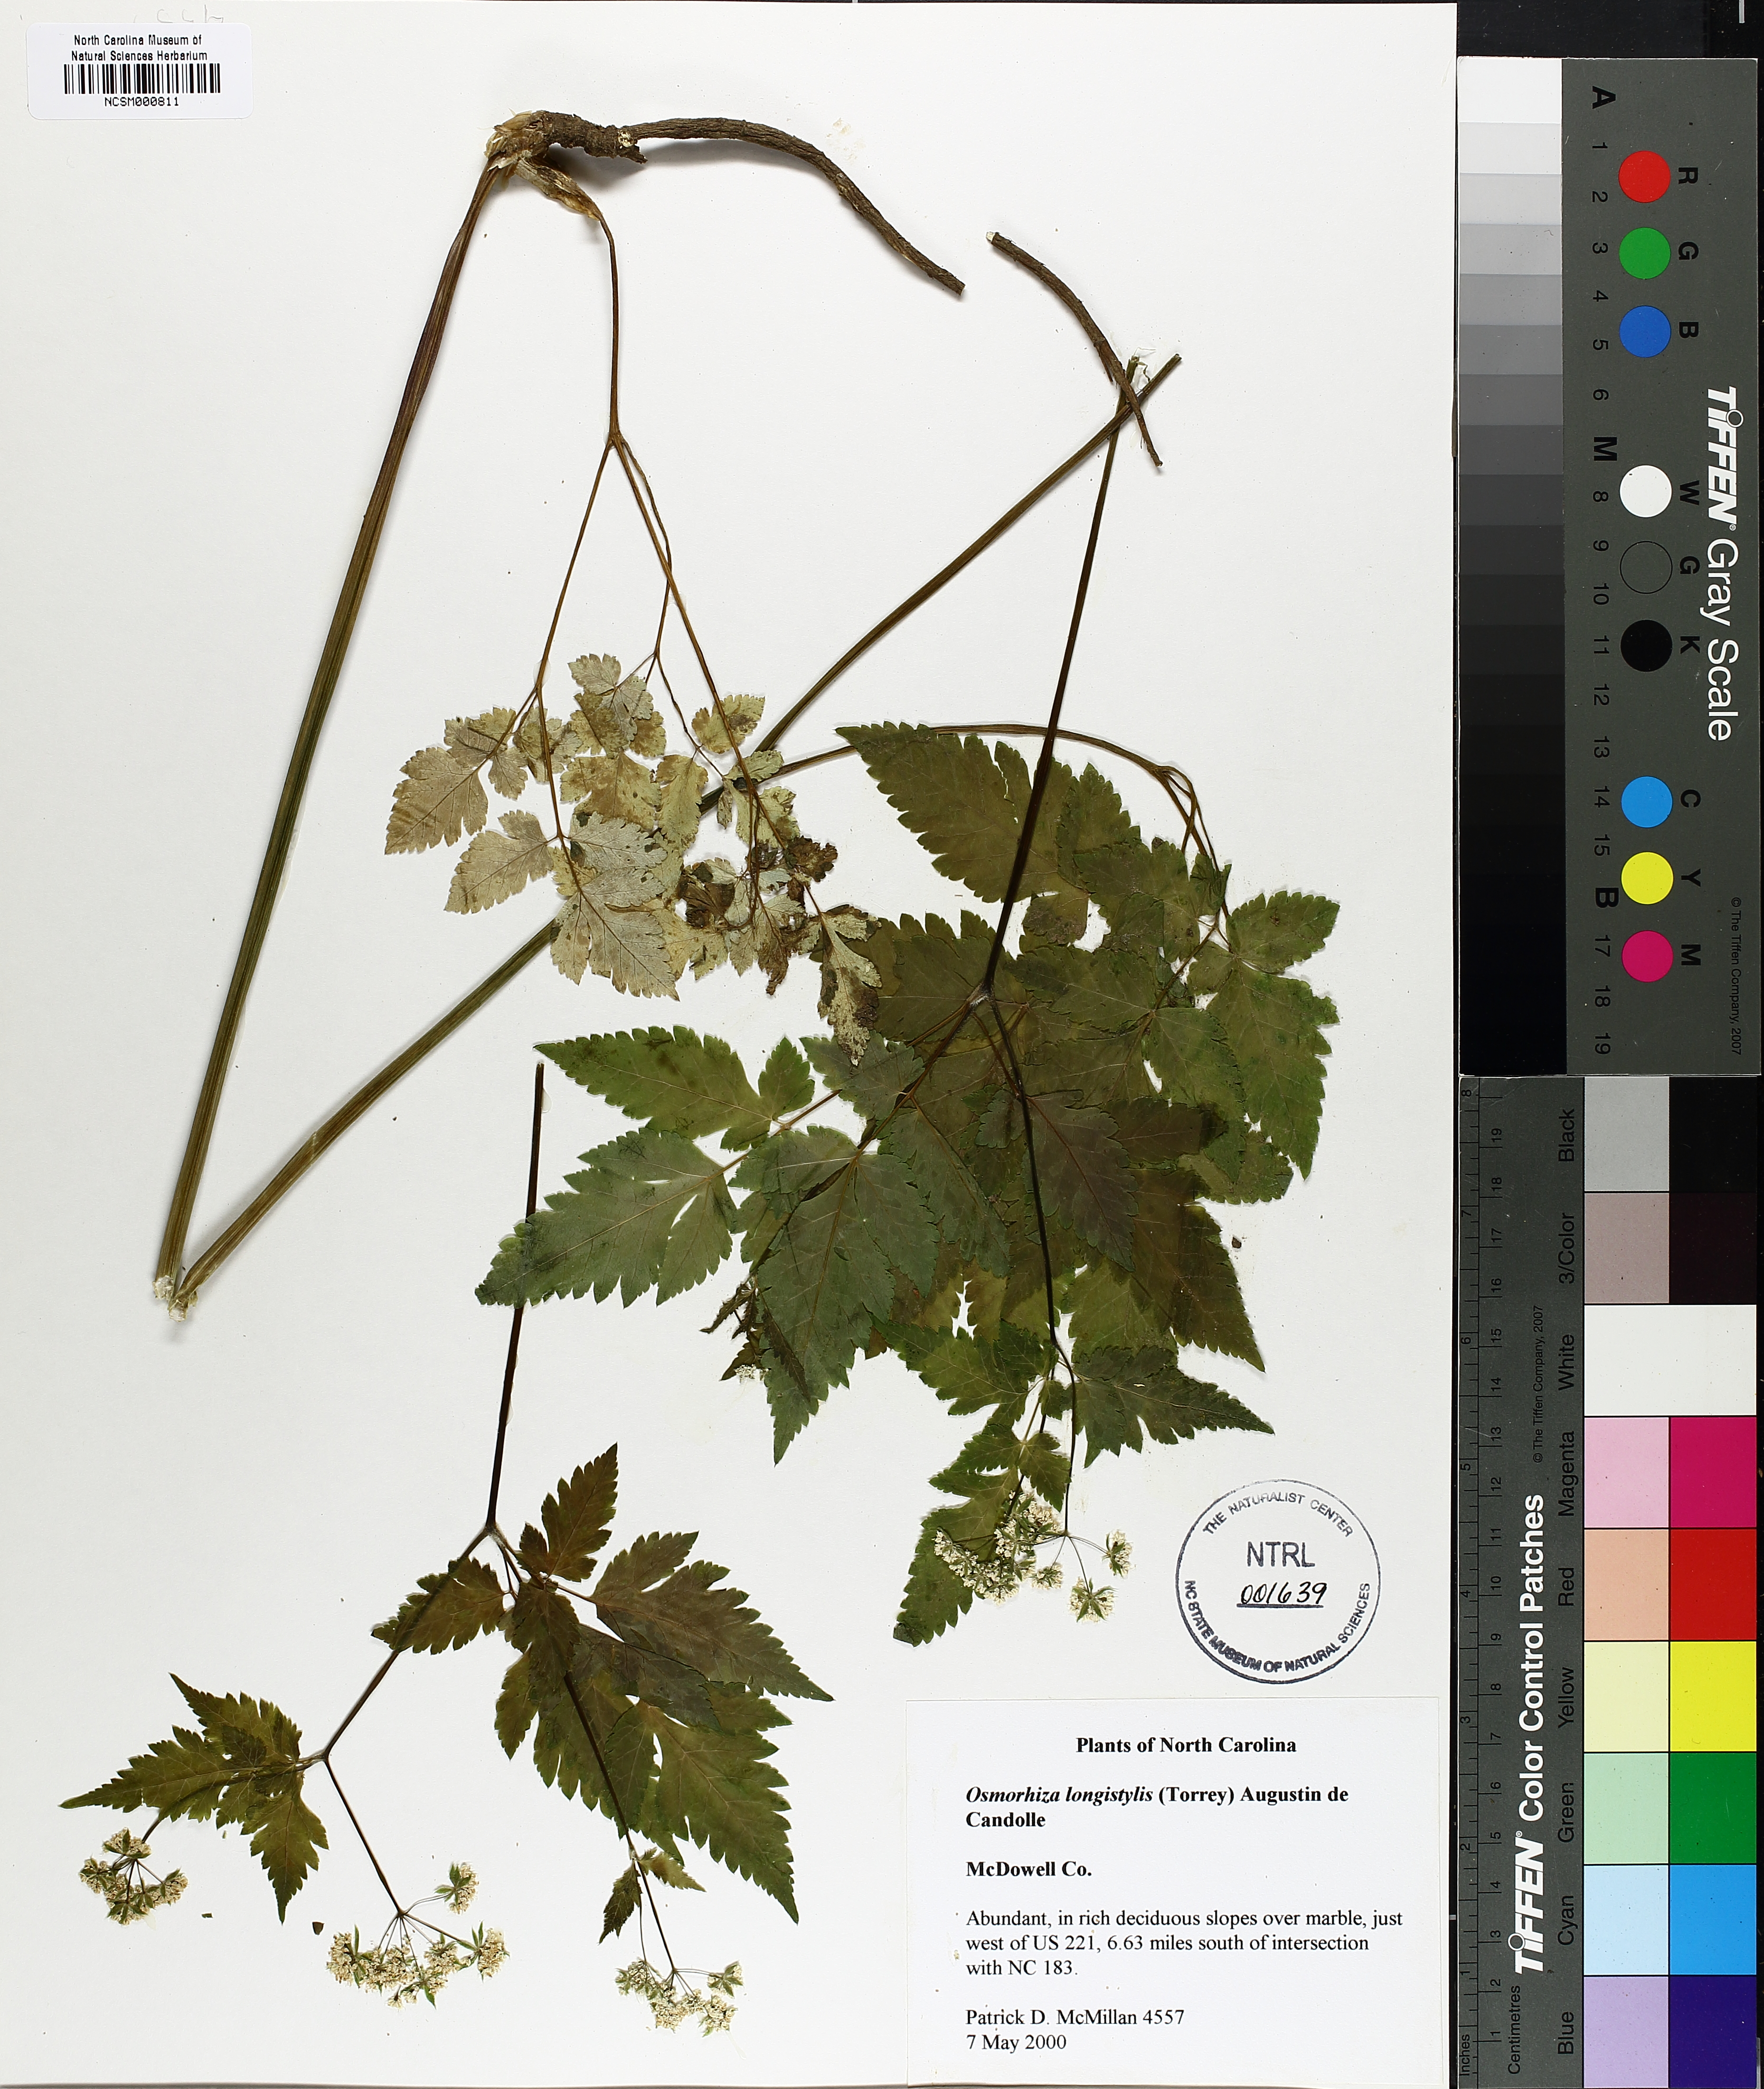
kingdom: Plantae
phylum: Tracheophyta
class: Magnoliopsida
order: Apiales
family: Apiaceae
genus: Osmorhiza
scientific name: Osmorhiza longistylis
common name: Smooth sweet cicely
